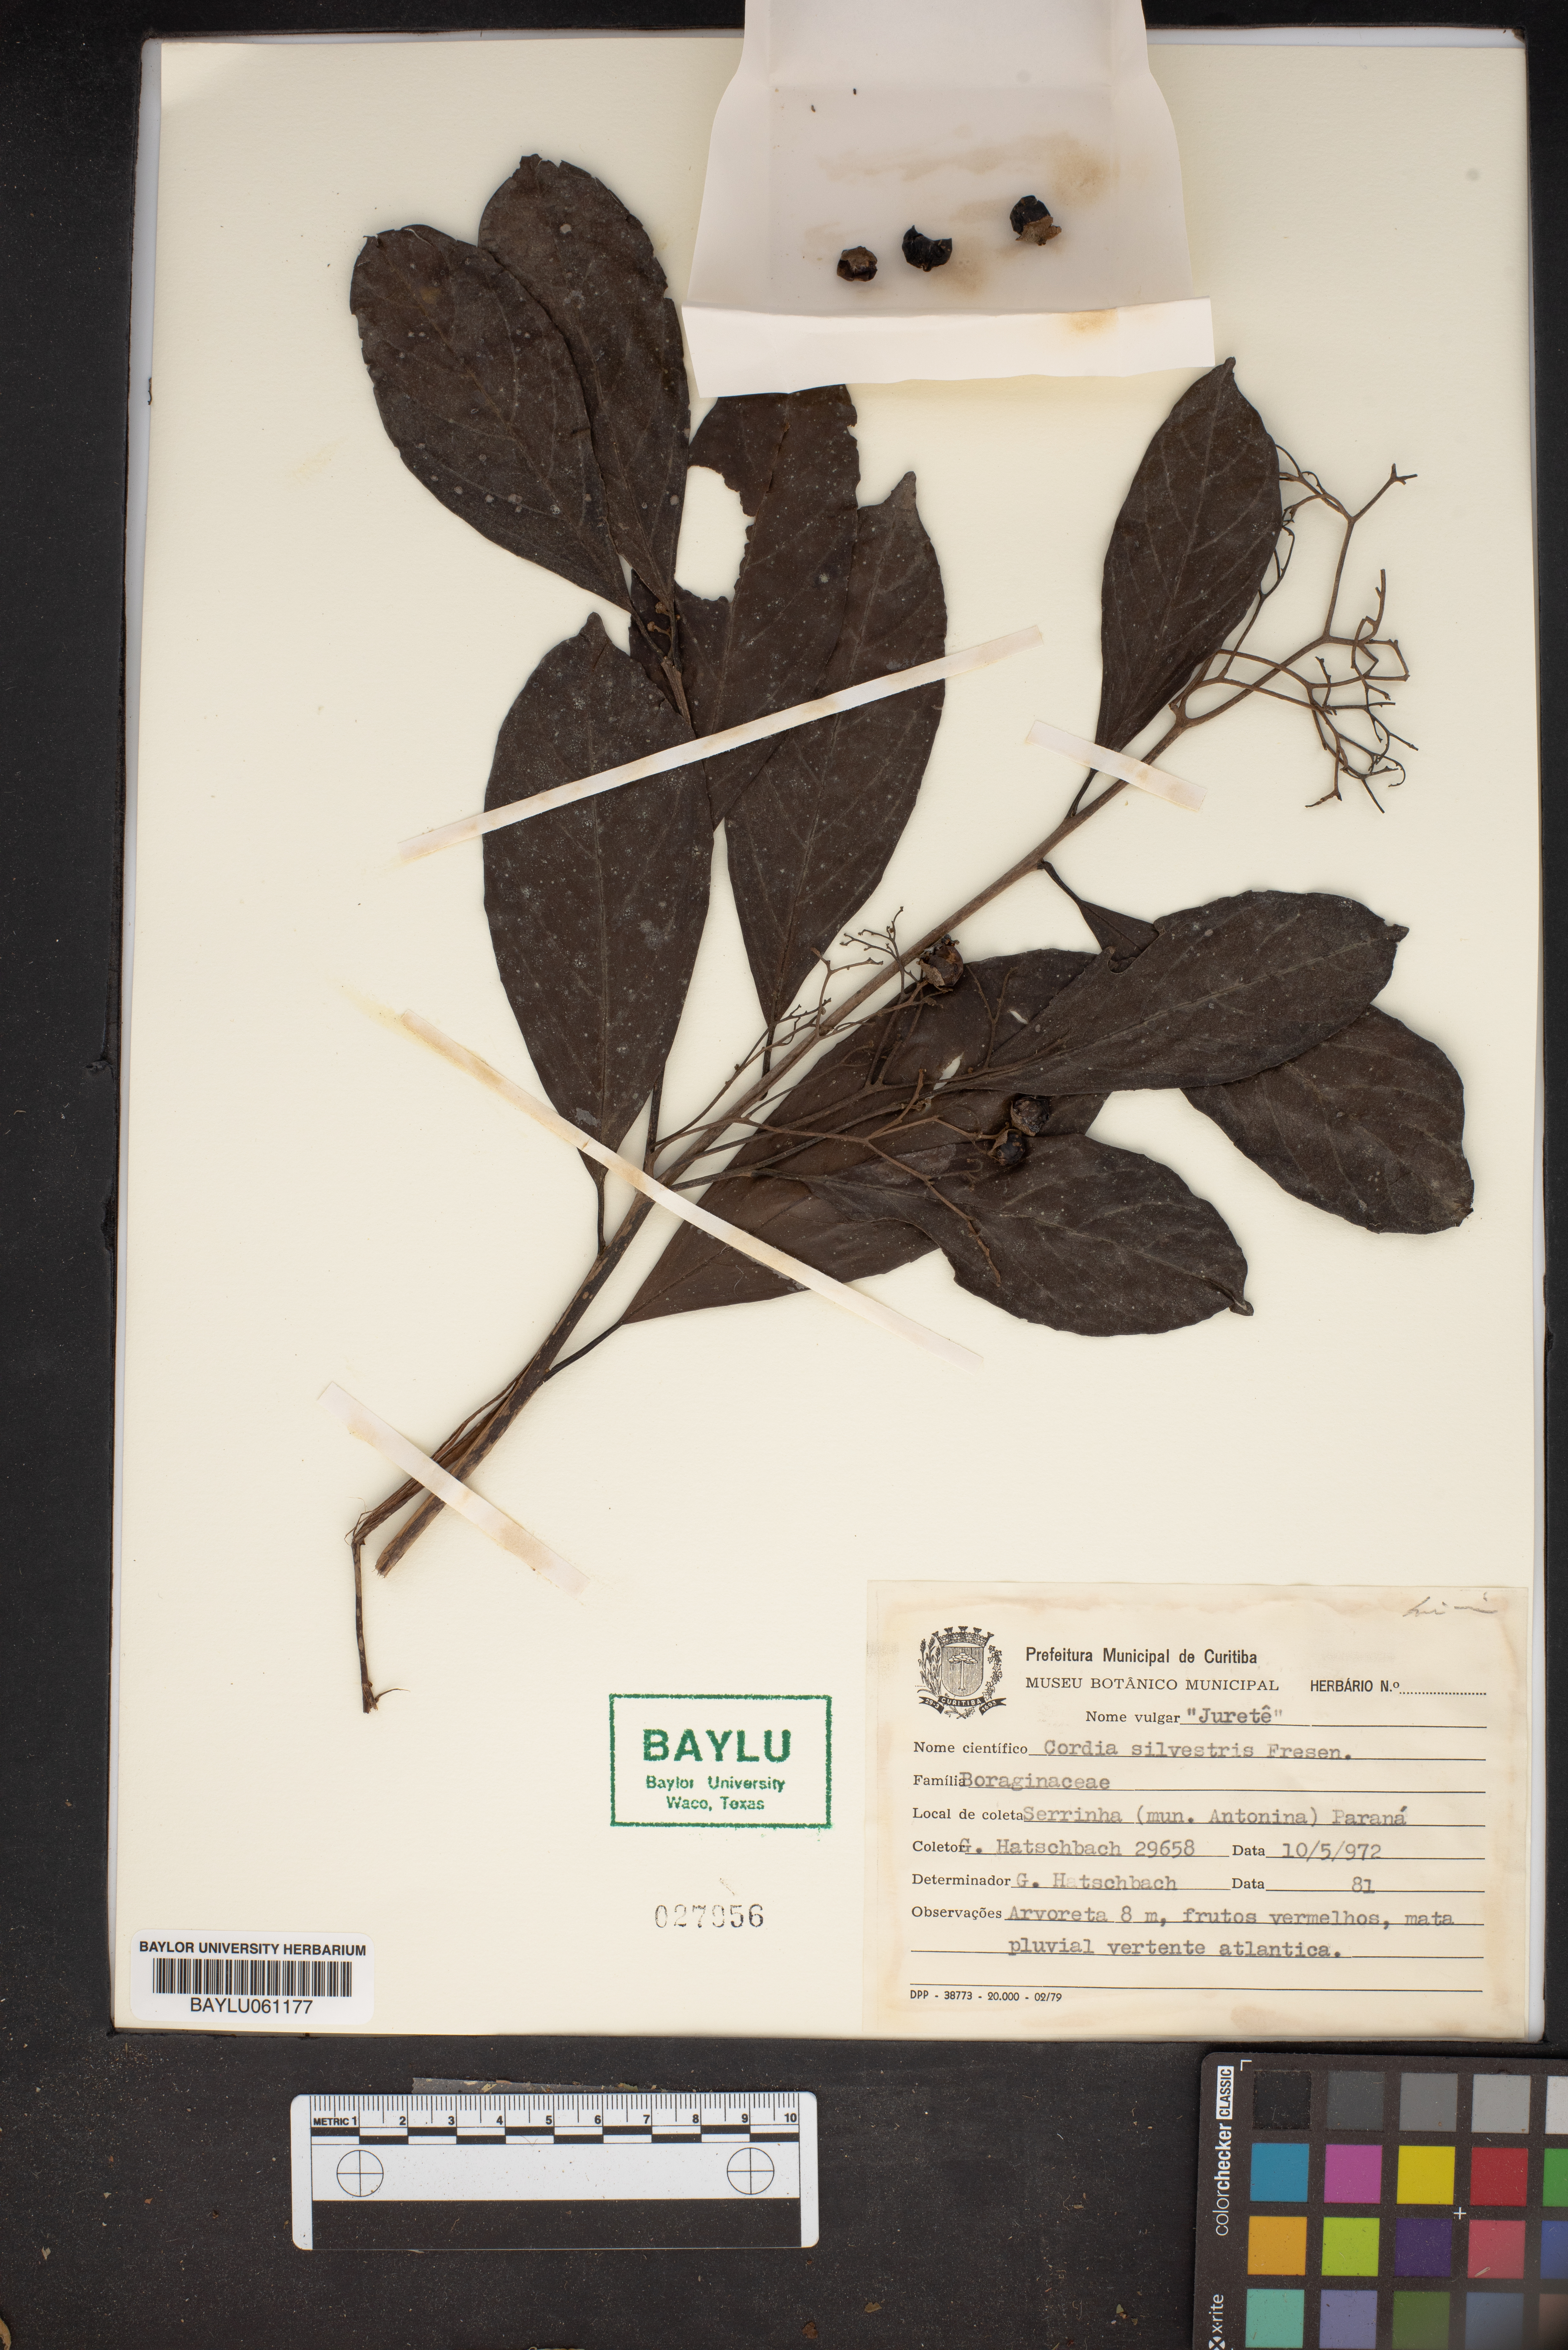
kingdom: Plantae
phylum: Tracheophyta
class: Magnoliopsida
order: Boraginales
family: Cordiaceae
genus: Cordia
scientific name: Cordia silvestris
